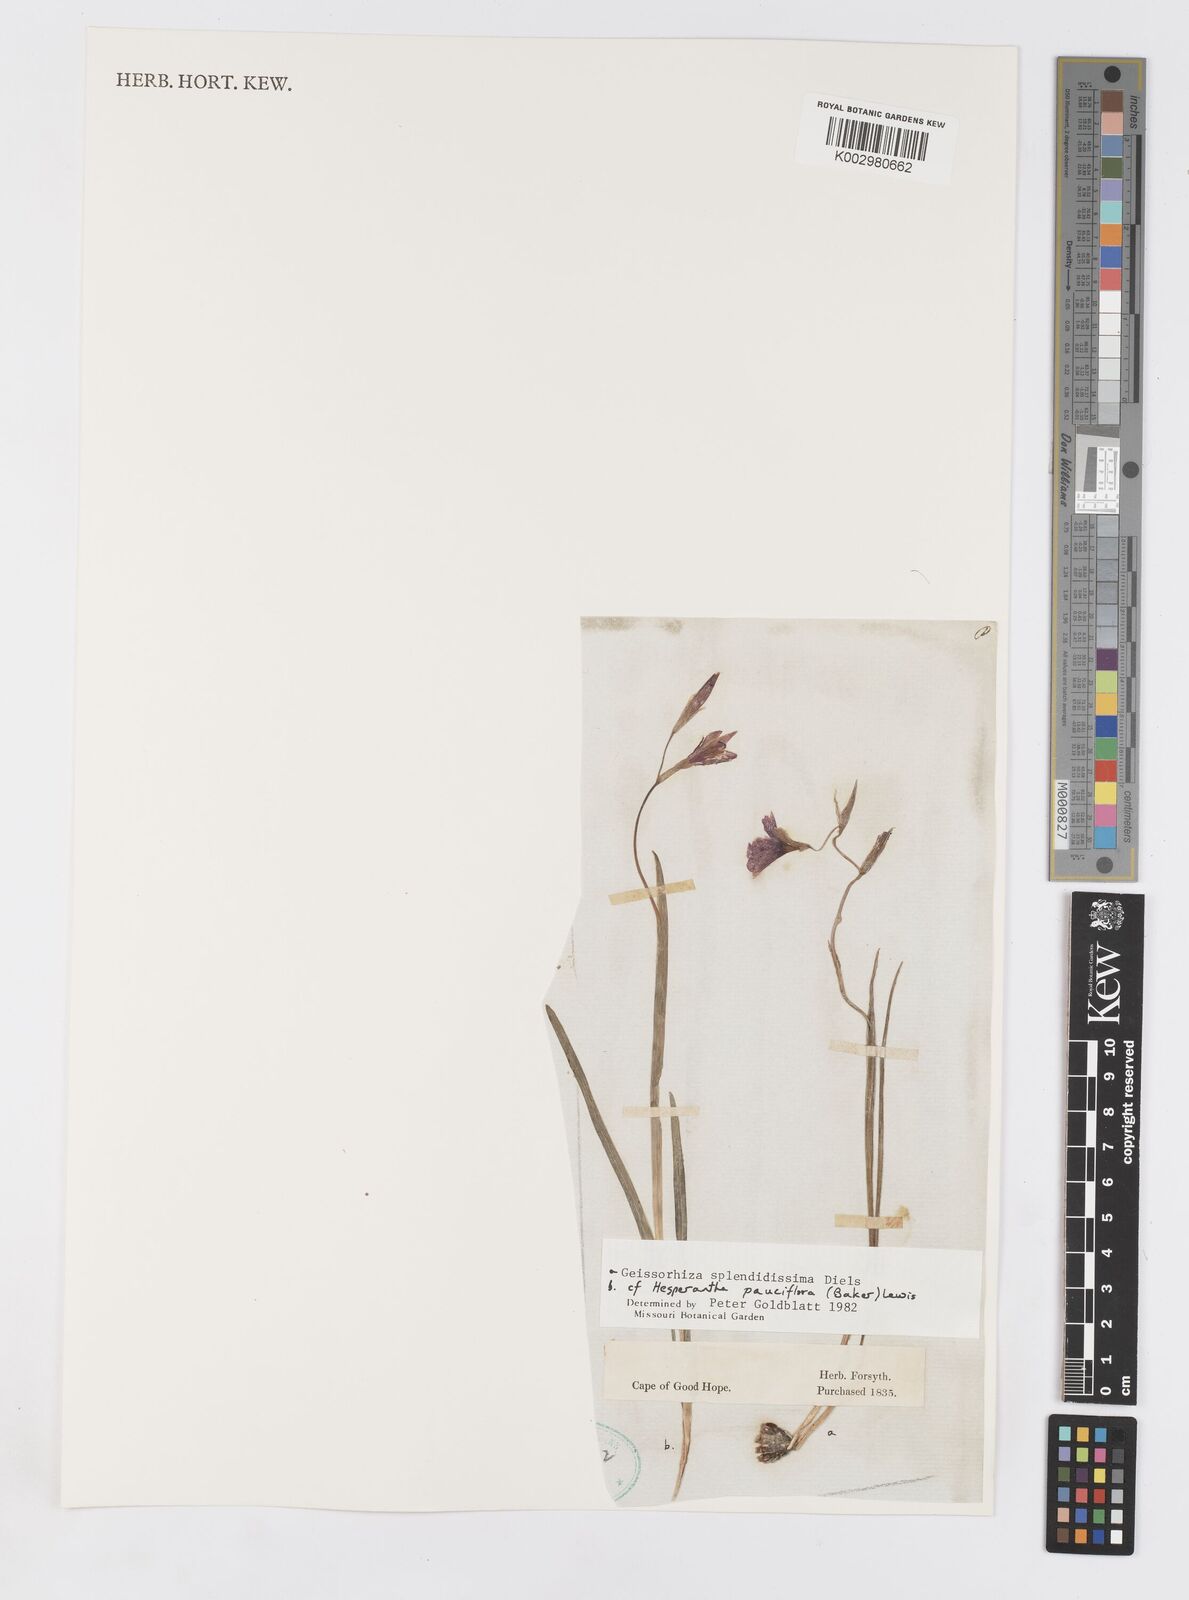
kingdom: Plantae
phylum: Tracheophyta
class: Liliopsida
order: Asparagales
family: Iridaceae
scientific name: Iridaceae
